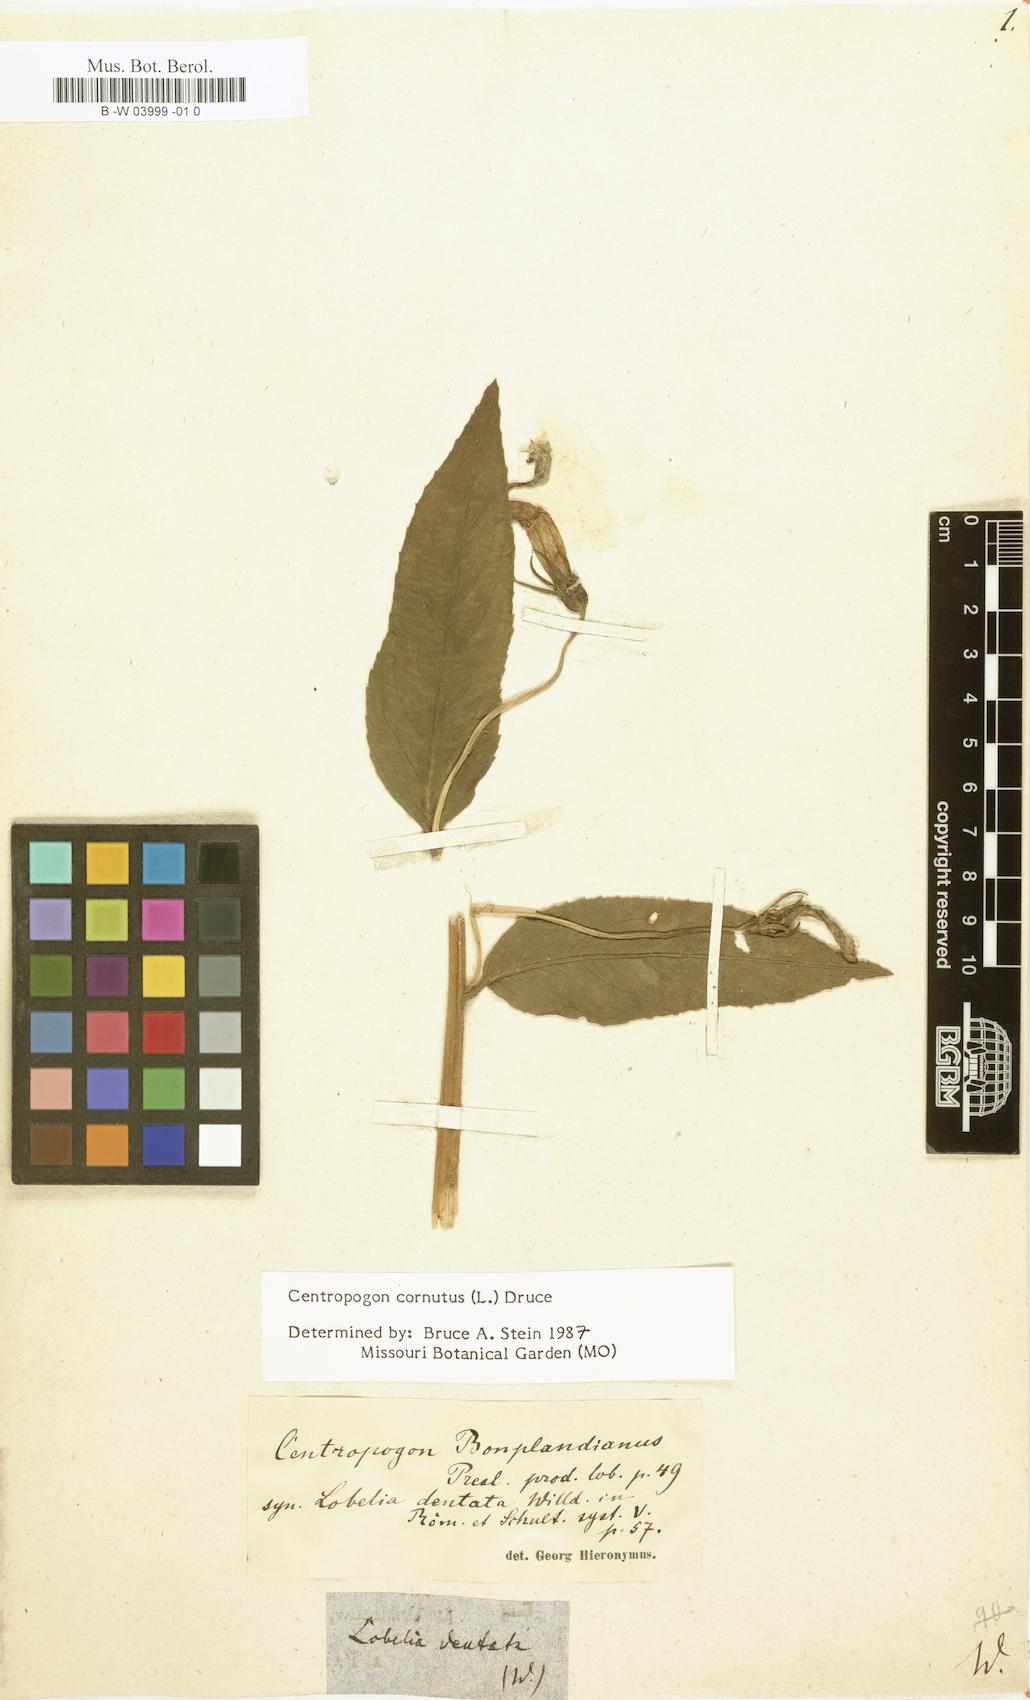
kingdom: Plantae
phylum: Tracheophyta
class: Magnoliopsida
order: Asterales
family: Campanulaceae
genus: Centropogon
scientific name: Centropogon cornutus
